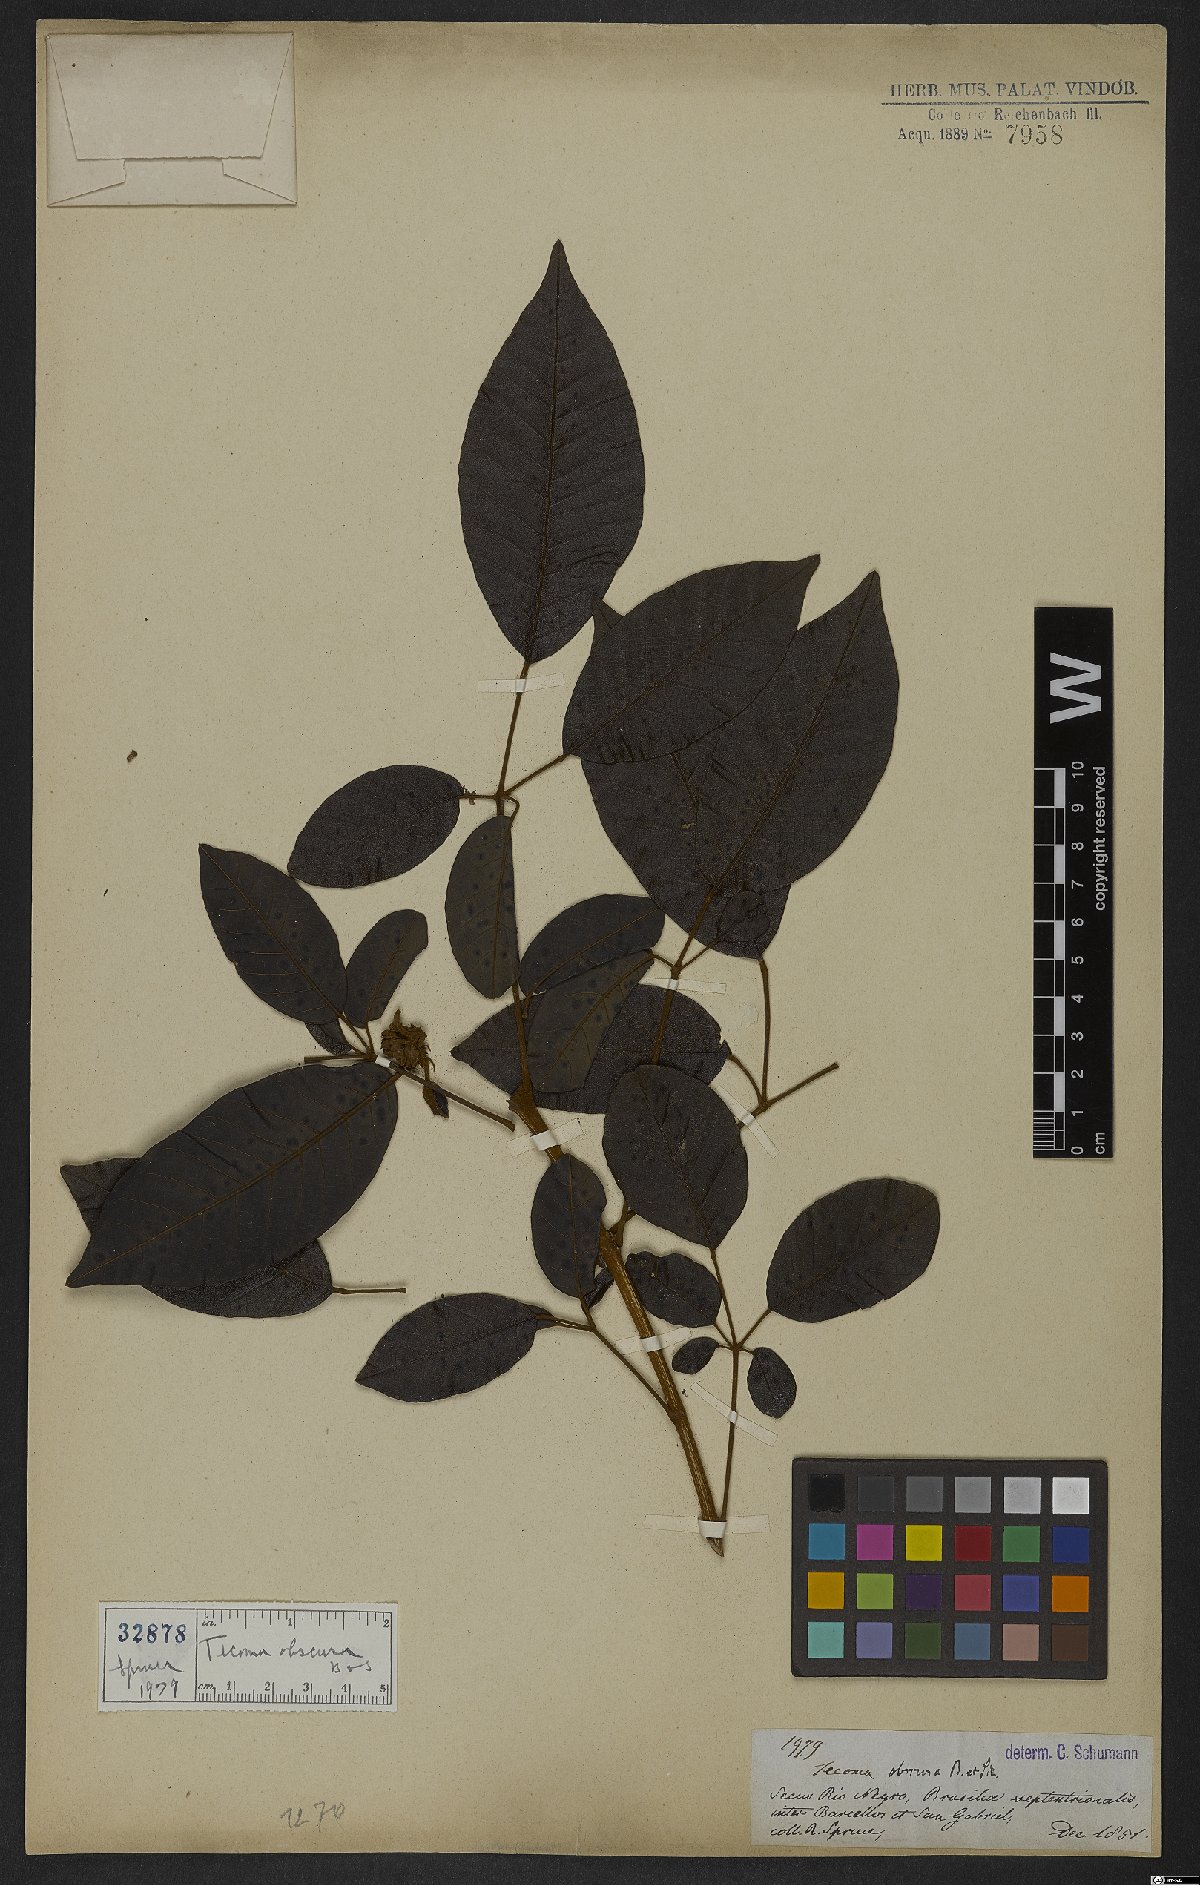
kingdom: Plantae
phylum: Tracheophyta
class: Magnoliopsida
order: Lamiales
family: Bignoniaceae
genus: Handroanthus
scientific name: Handroanthus obscurus
